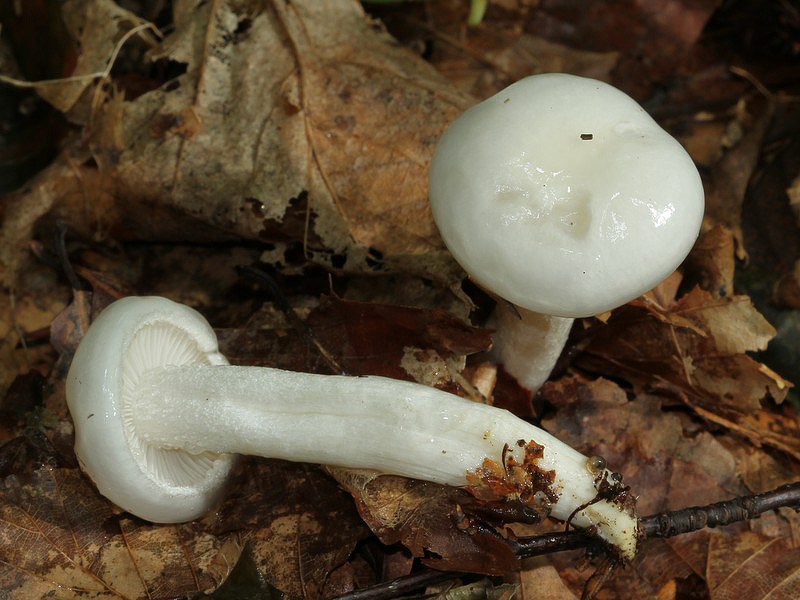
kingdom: Fungi
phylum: Basidiomycota
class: Agaricomycetes
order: Agaricales
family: Hygrophoraceae
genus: Hygrophorus
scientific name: Hygrophorus eburneus
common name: elfenbens-sneglehat
